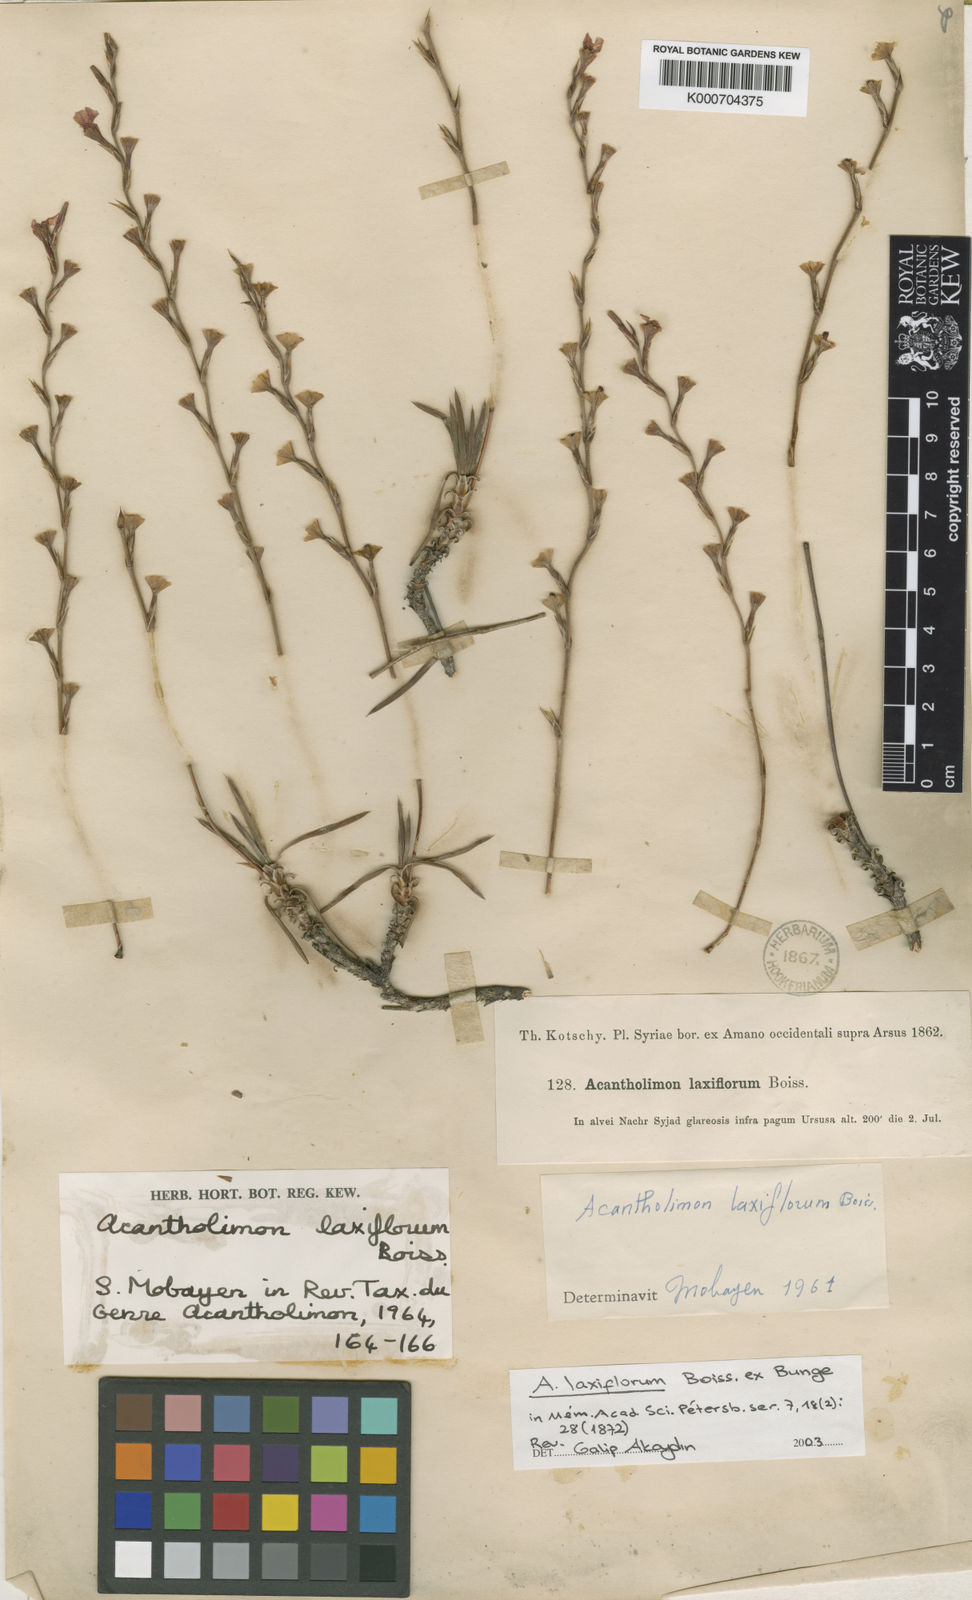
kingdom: Plantae
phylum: Tracheophyta
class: Magnoliopsida
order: Caryophyllales
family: Plumbaginaceae
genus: Acantholimon
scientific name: Acantholimon
